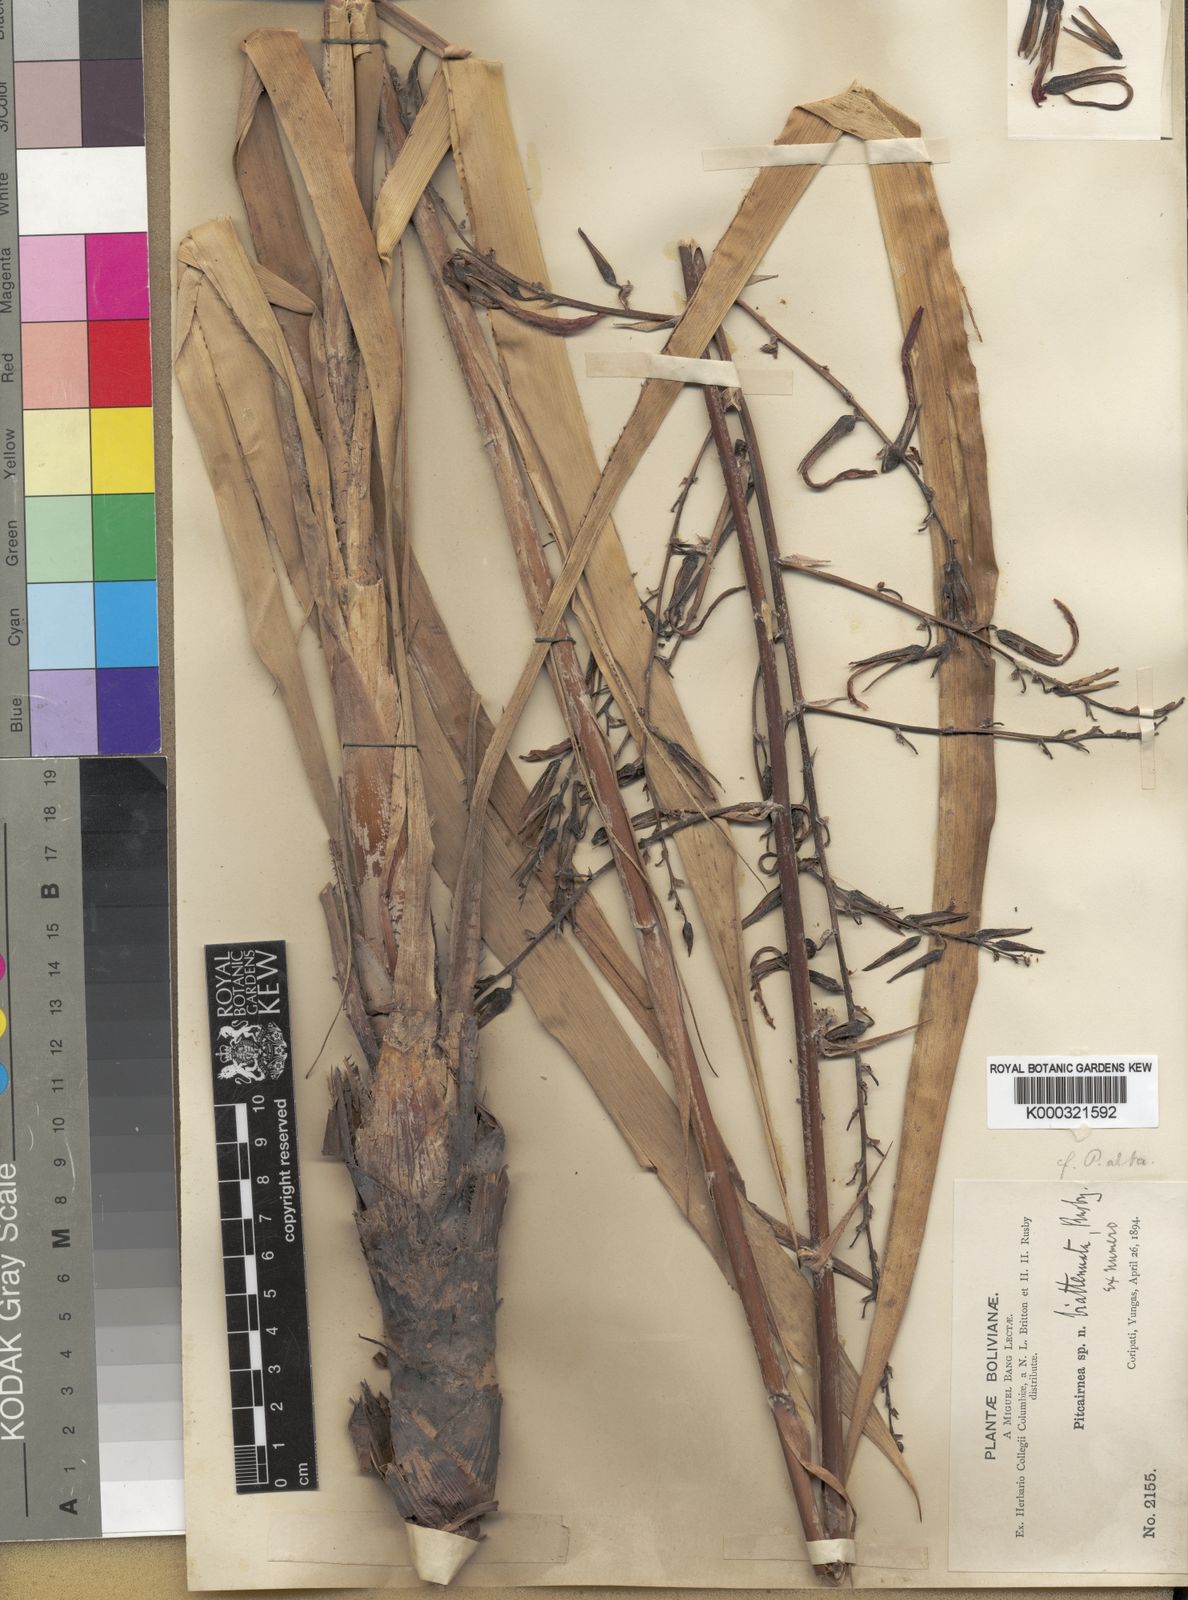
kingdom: Plantae
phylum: Tracheophyta
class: Liliopsida
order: Poales
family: Bromeliaceae
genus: Pitcairnia
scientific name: Pitcairnia paniculata
